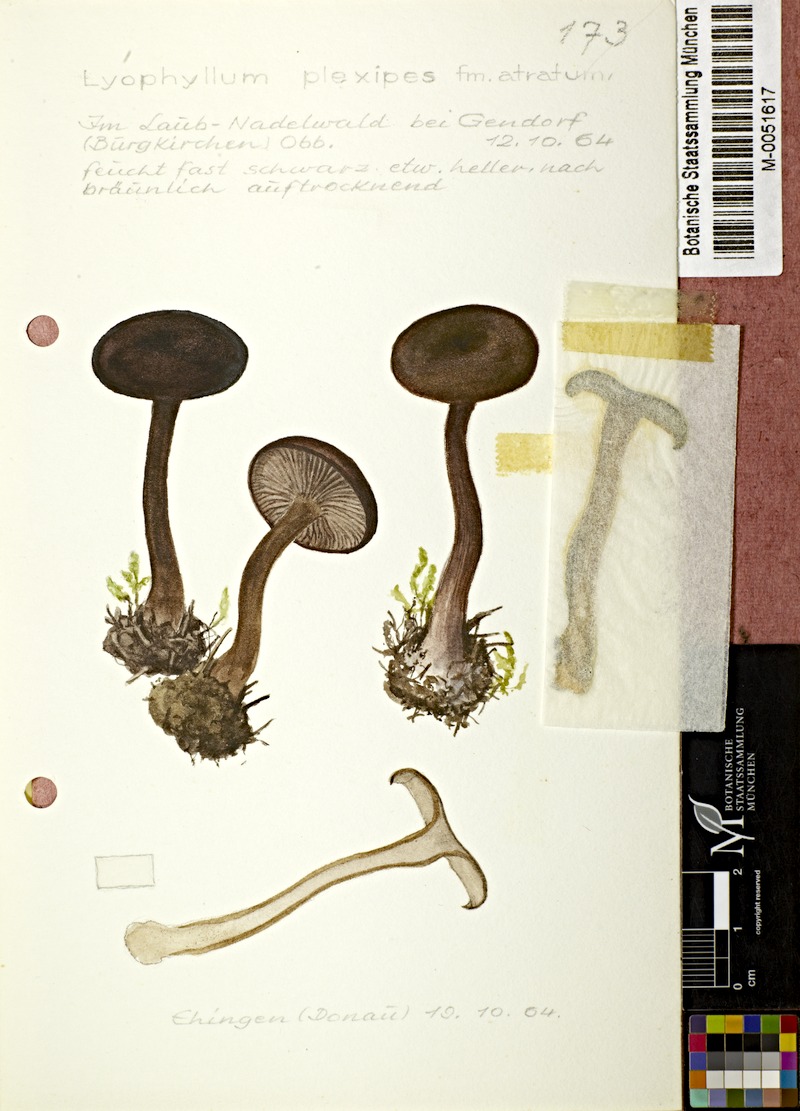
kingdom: Fungi
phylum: Basidiomycota
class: Agaricomycetes
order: Agaricales
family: Lyophyllaceae
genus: Sagaranella
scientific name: Sagaranella tylicolor
